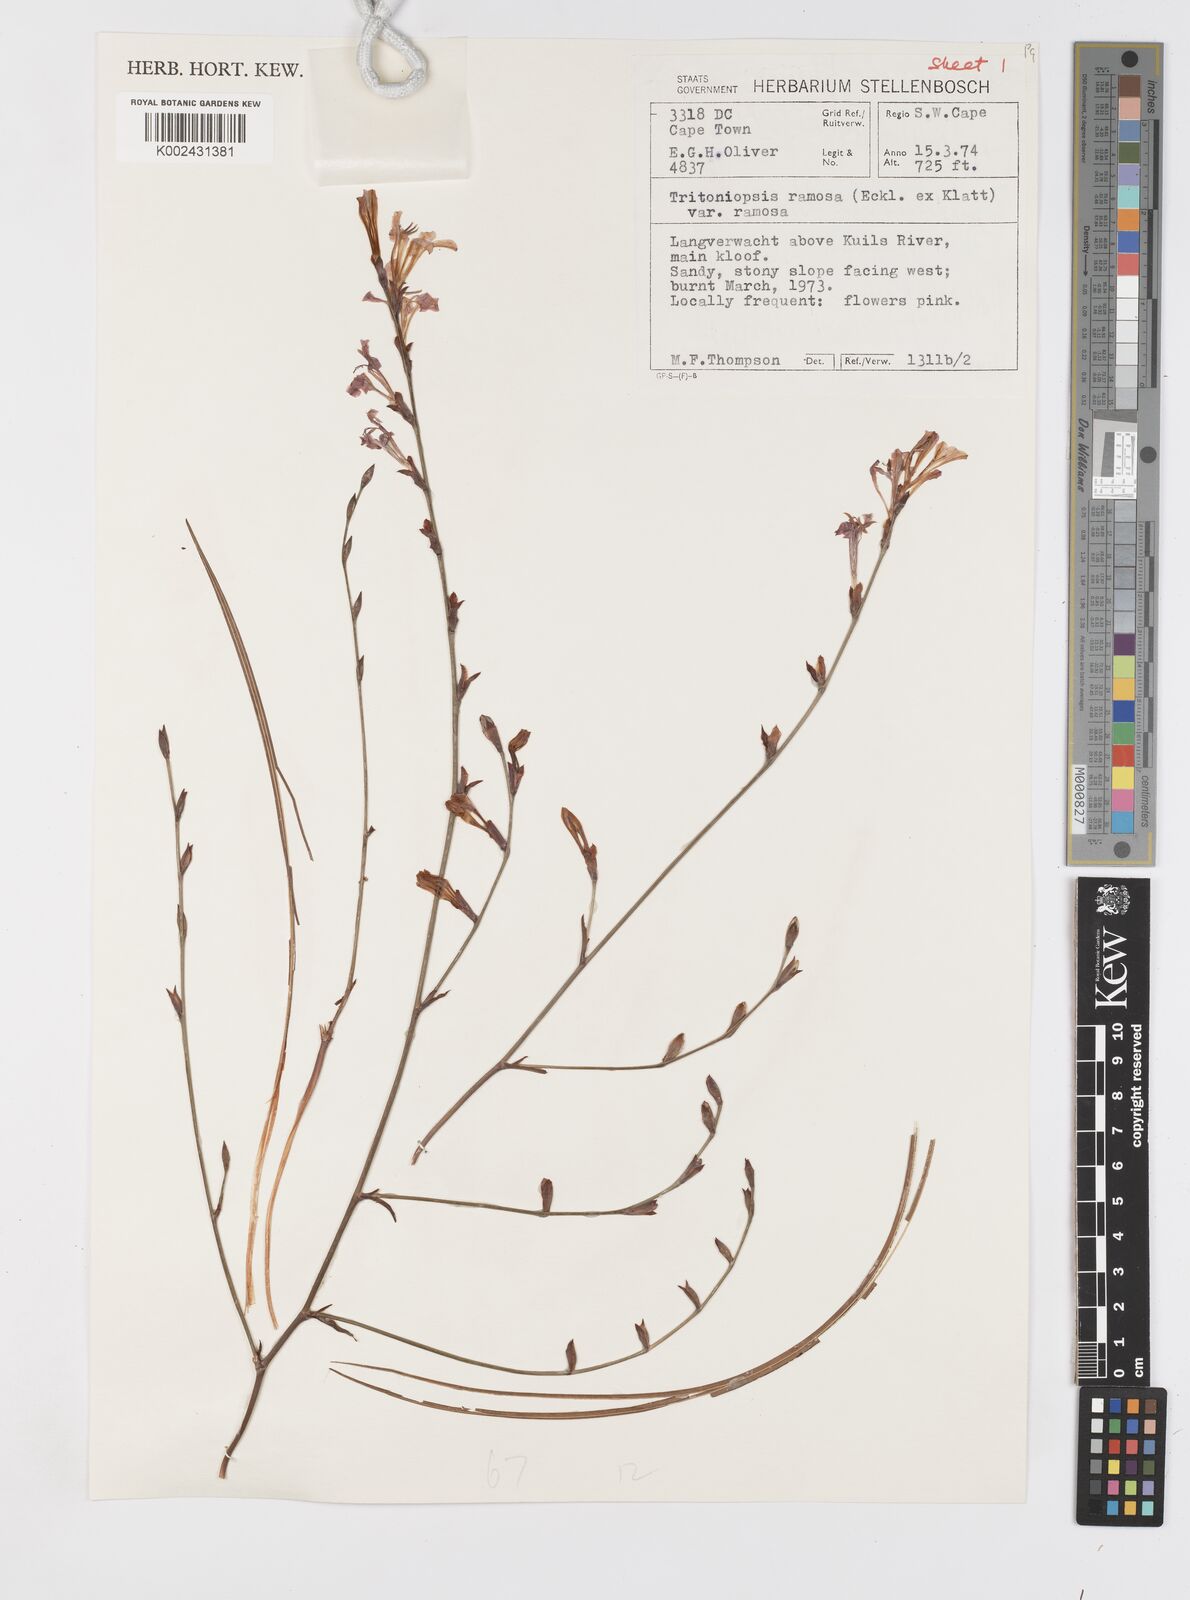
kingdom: Plantae
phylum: Tracheophyta
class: Liliopsida
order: Asparagales
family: Iridaceae
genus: Tritoniopsis
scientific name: Tritoniopsis ramosa
